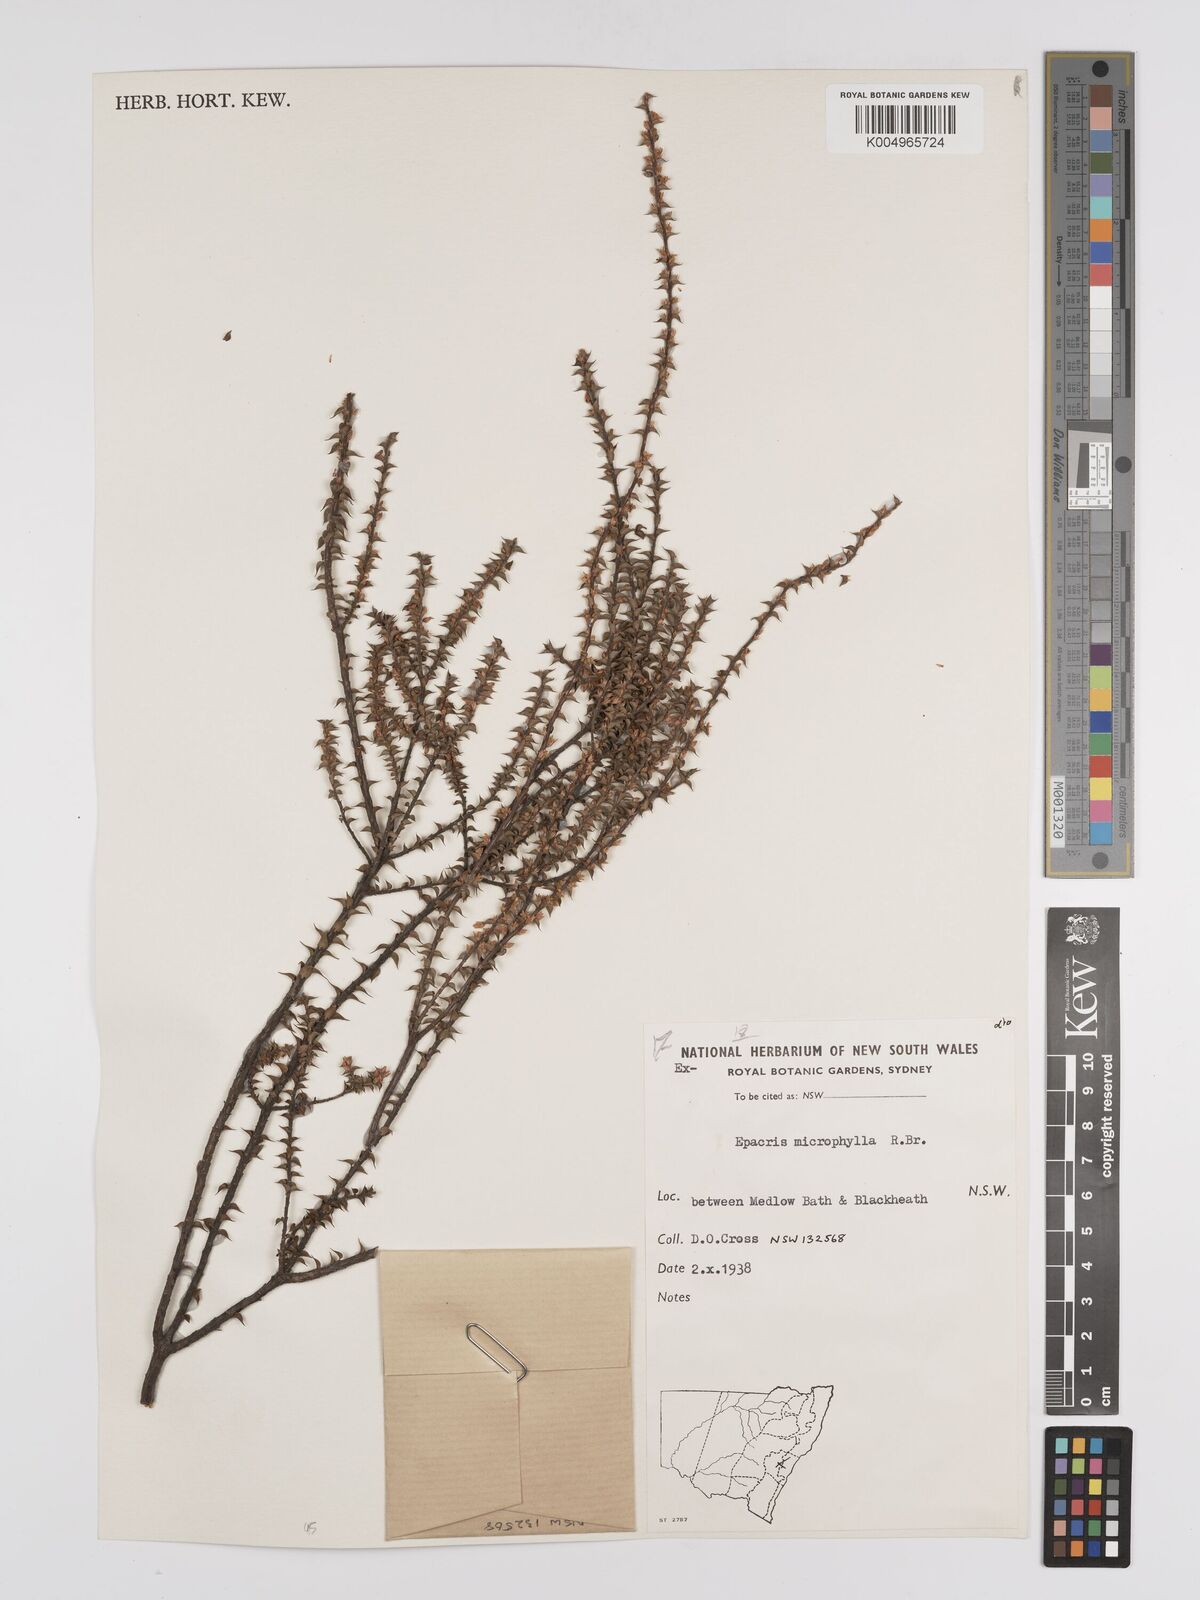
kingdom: Plantae
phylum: Tracheophyta
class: Magnoliopsida
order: Ericales
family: Ericaceae
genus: Epacris
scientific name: Epacris
